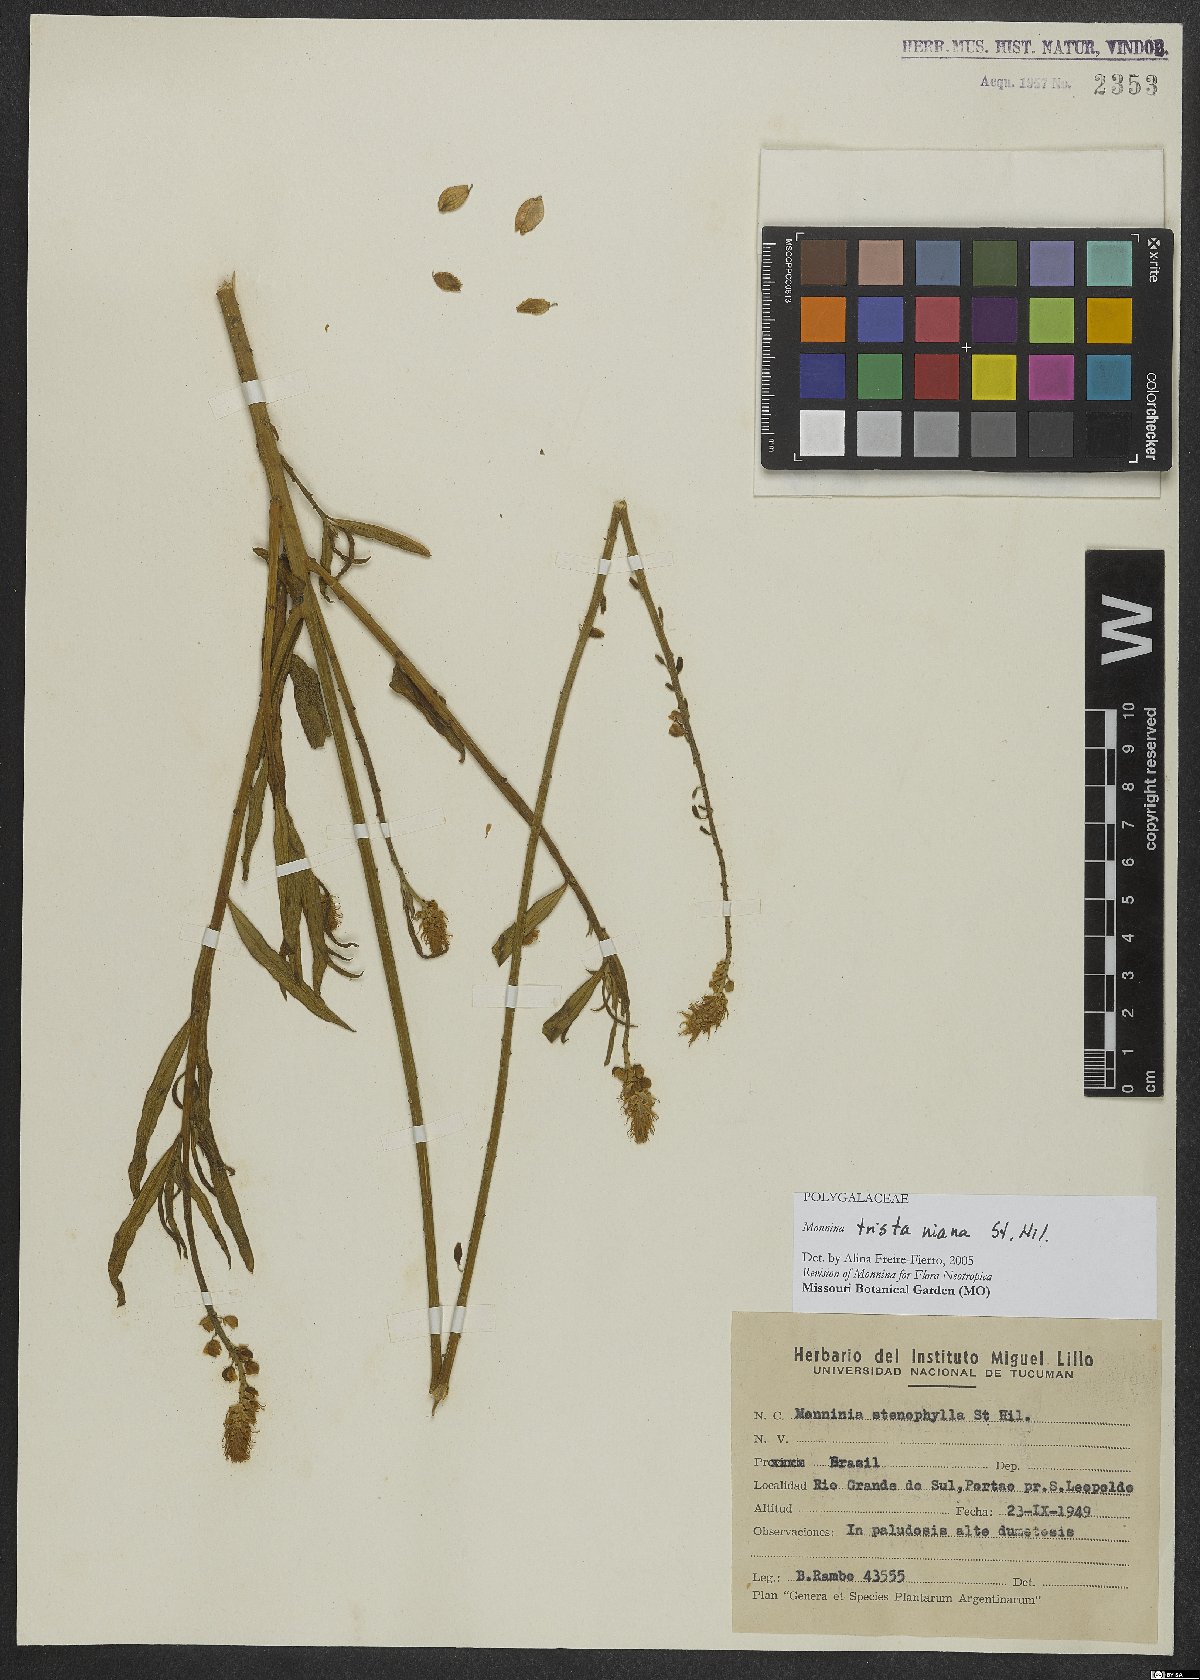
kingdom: Plantae
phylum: Tracheophyta
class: Magnoliopsida
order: Fabales
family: Polygalaceae
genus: Monnina
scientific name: Monnina tristaniana
